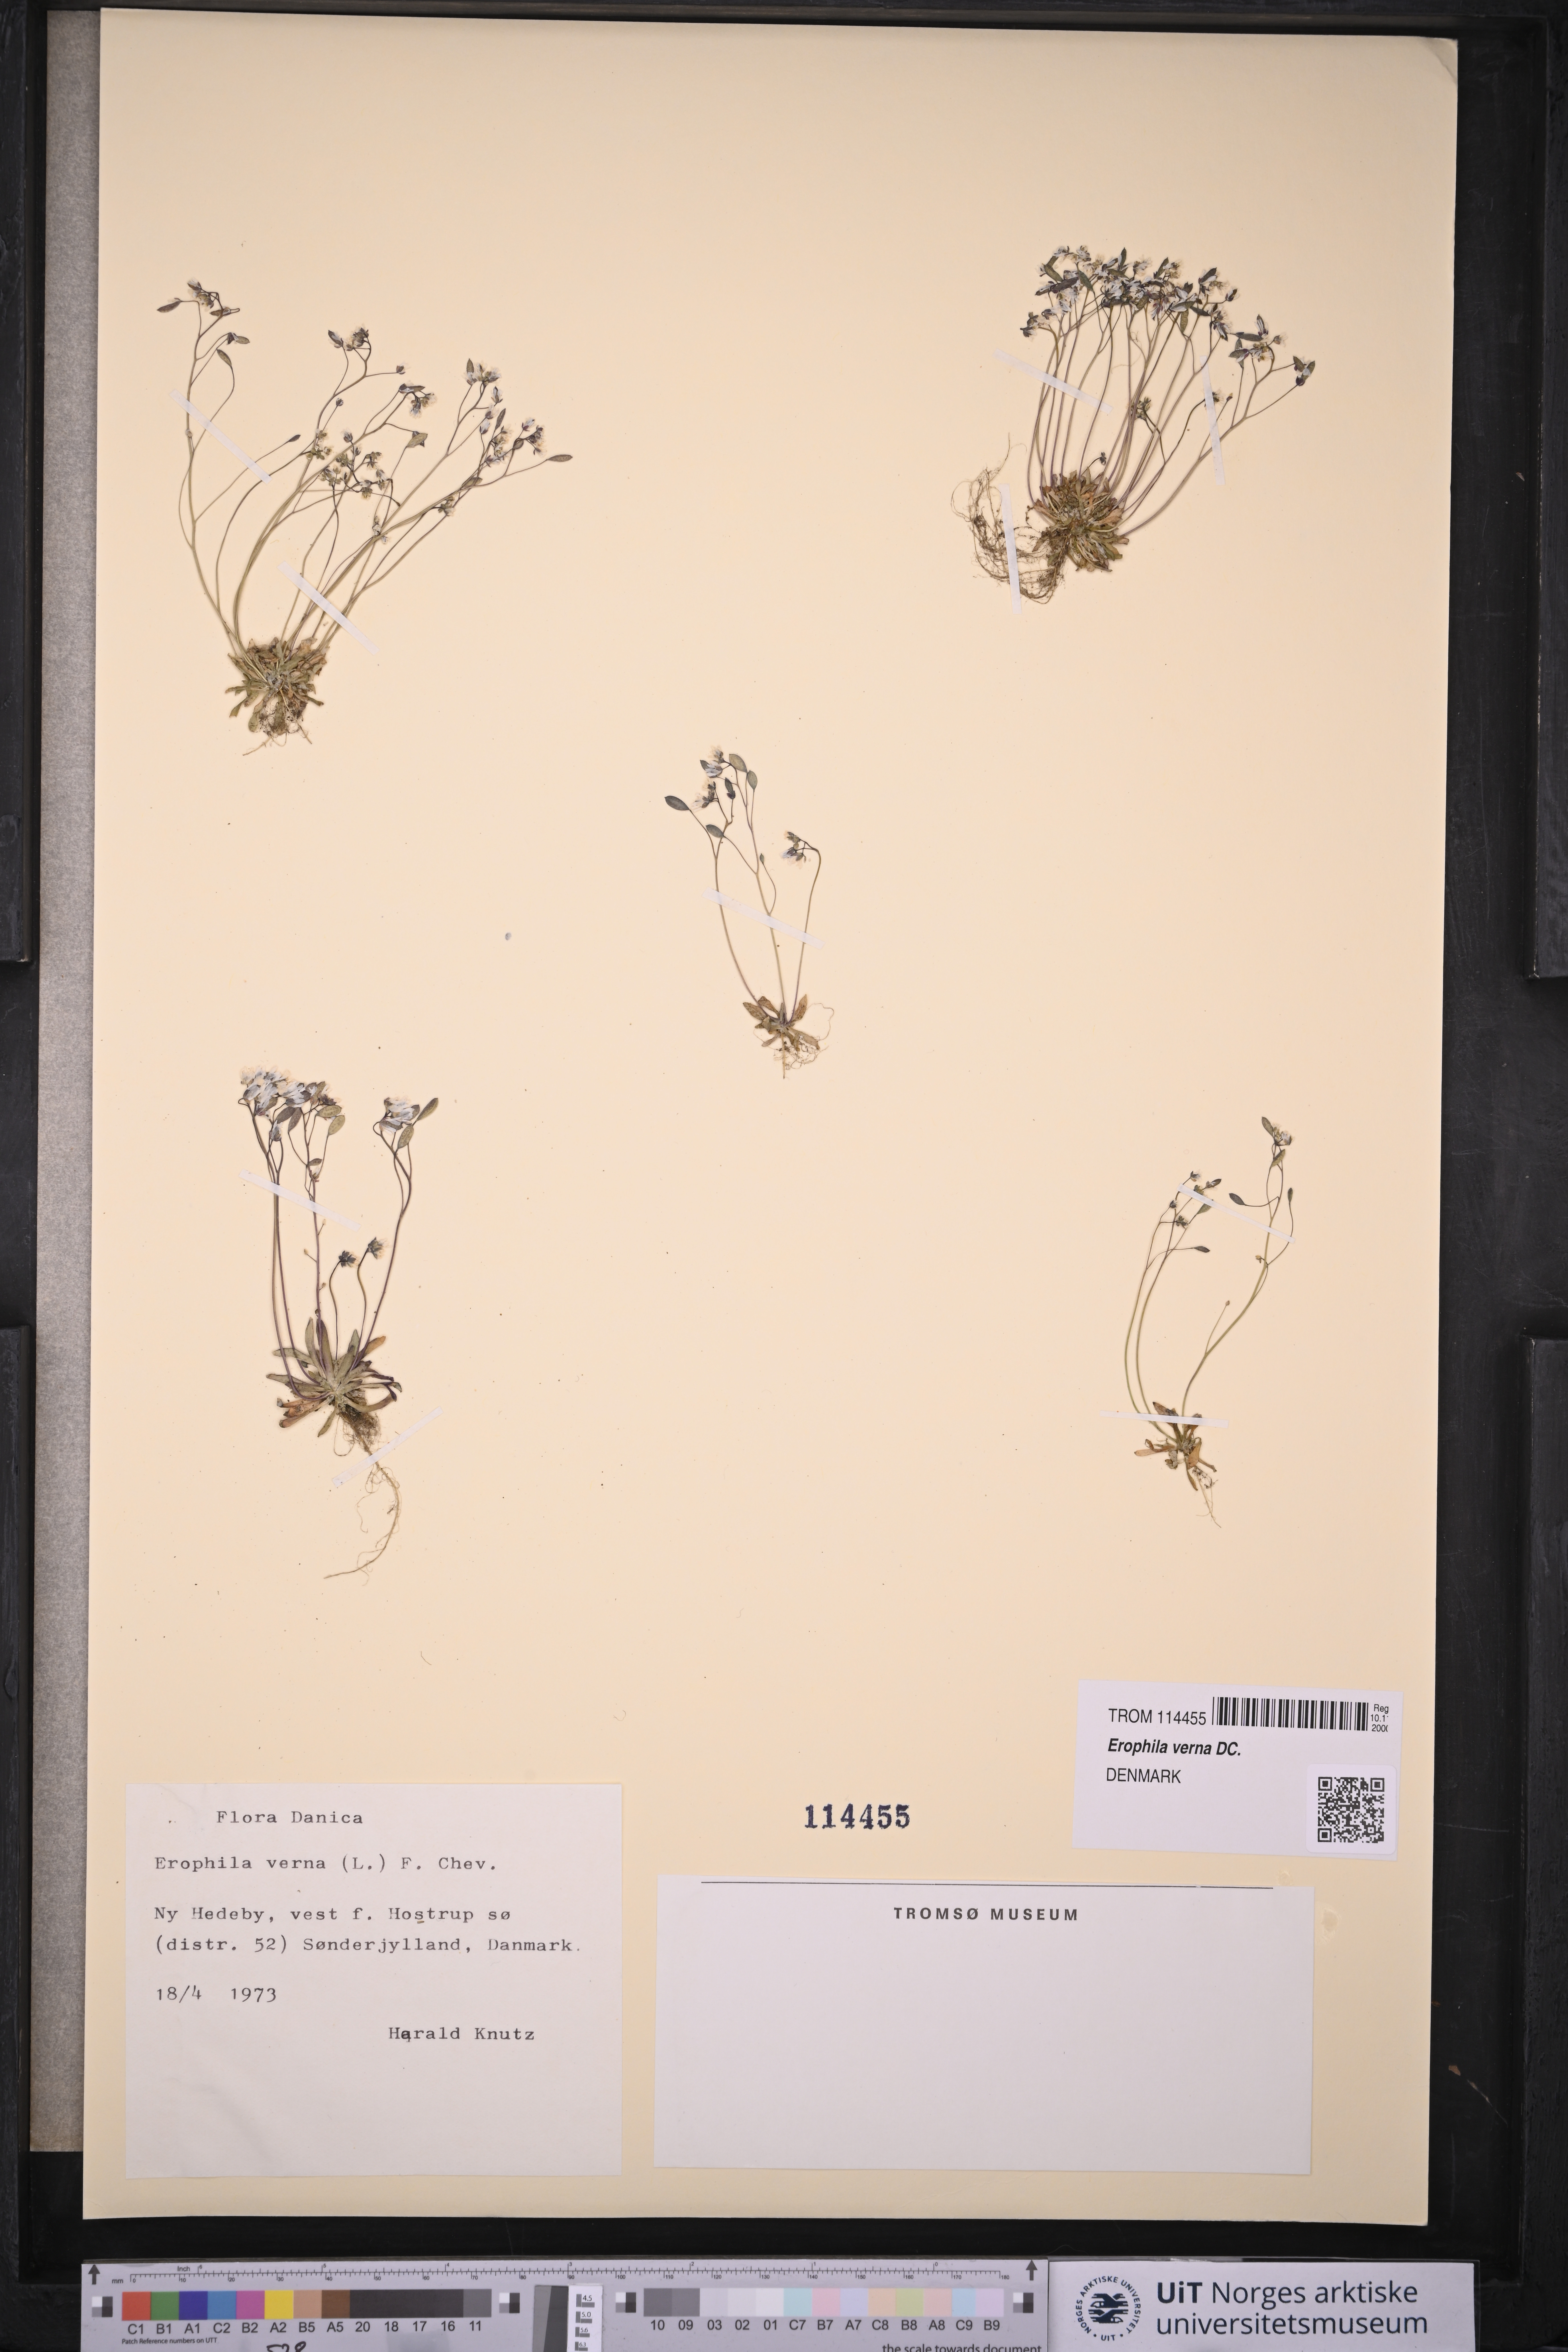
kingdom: Plantae
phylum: Tracheophyta
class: Magnoliopsida
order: Brassicales
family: Brassicaceae
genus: Draba
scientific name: Draba verna
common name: Spring draba
